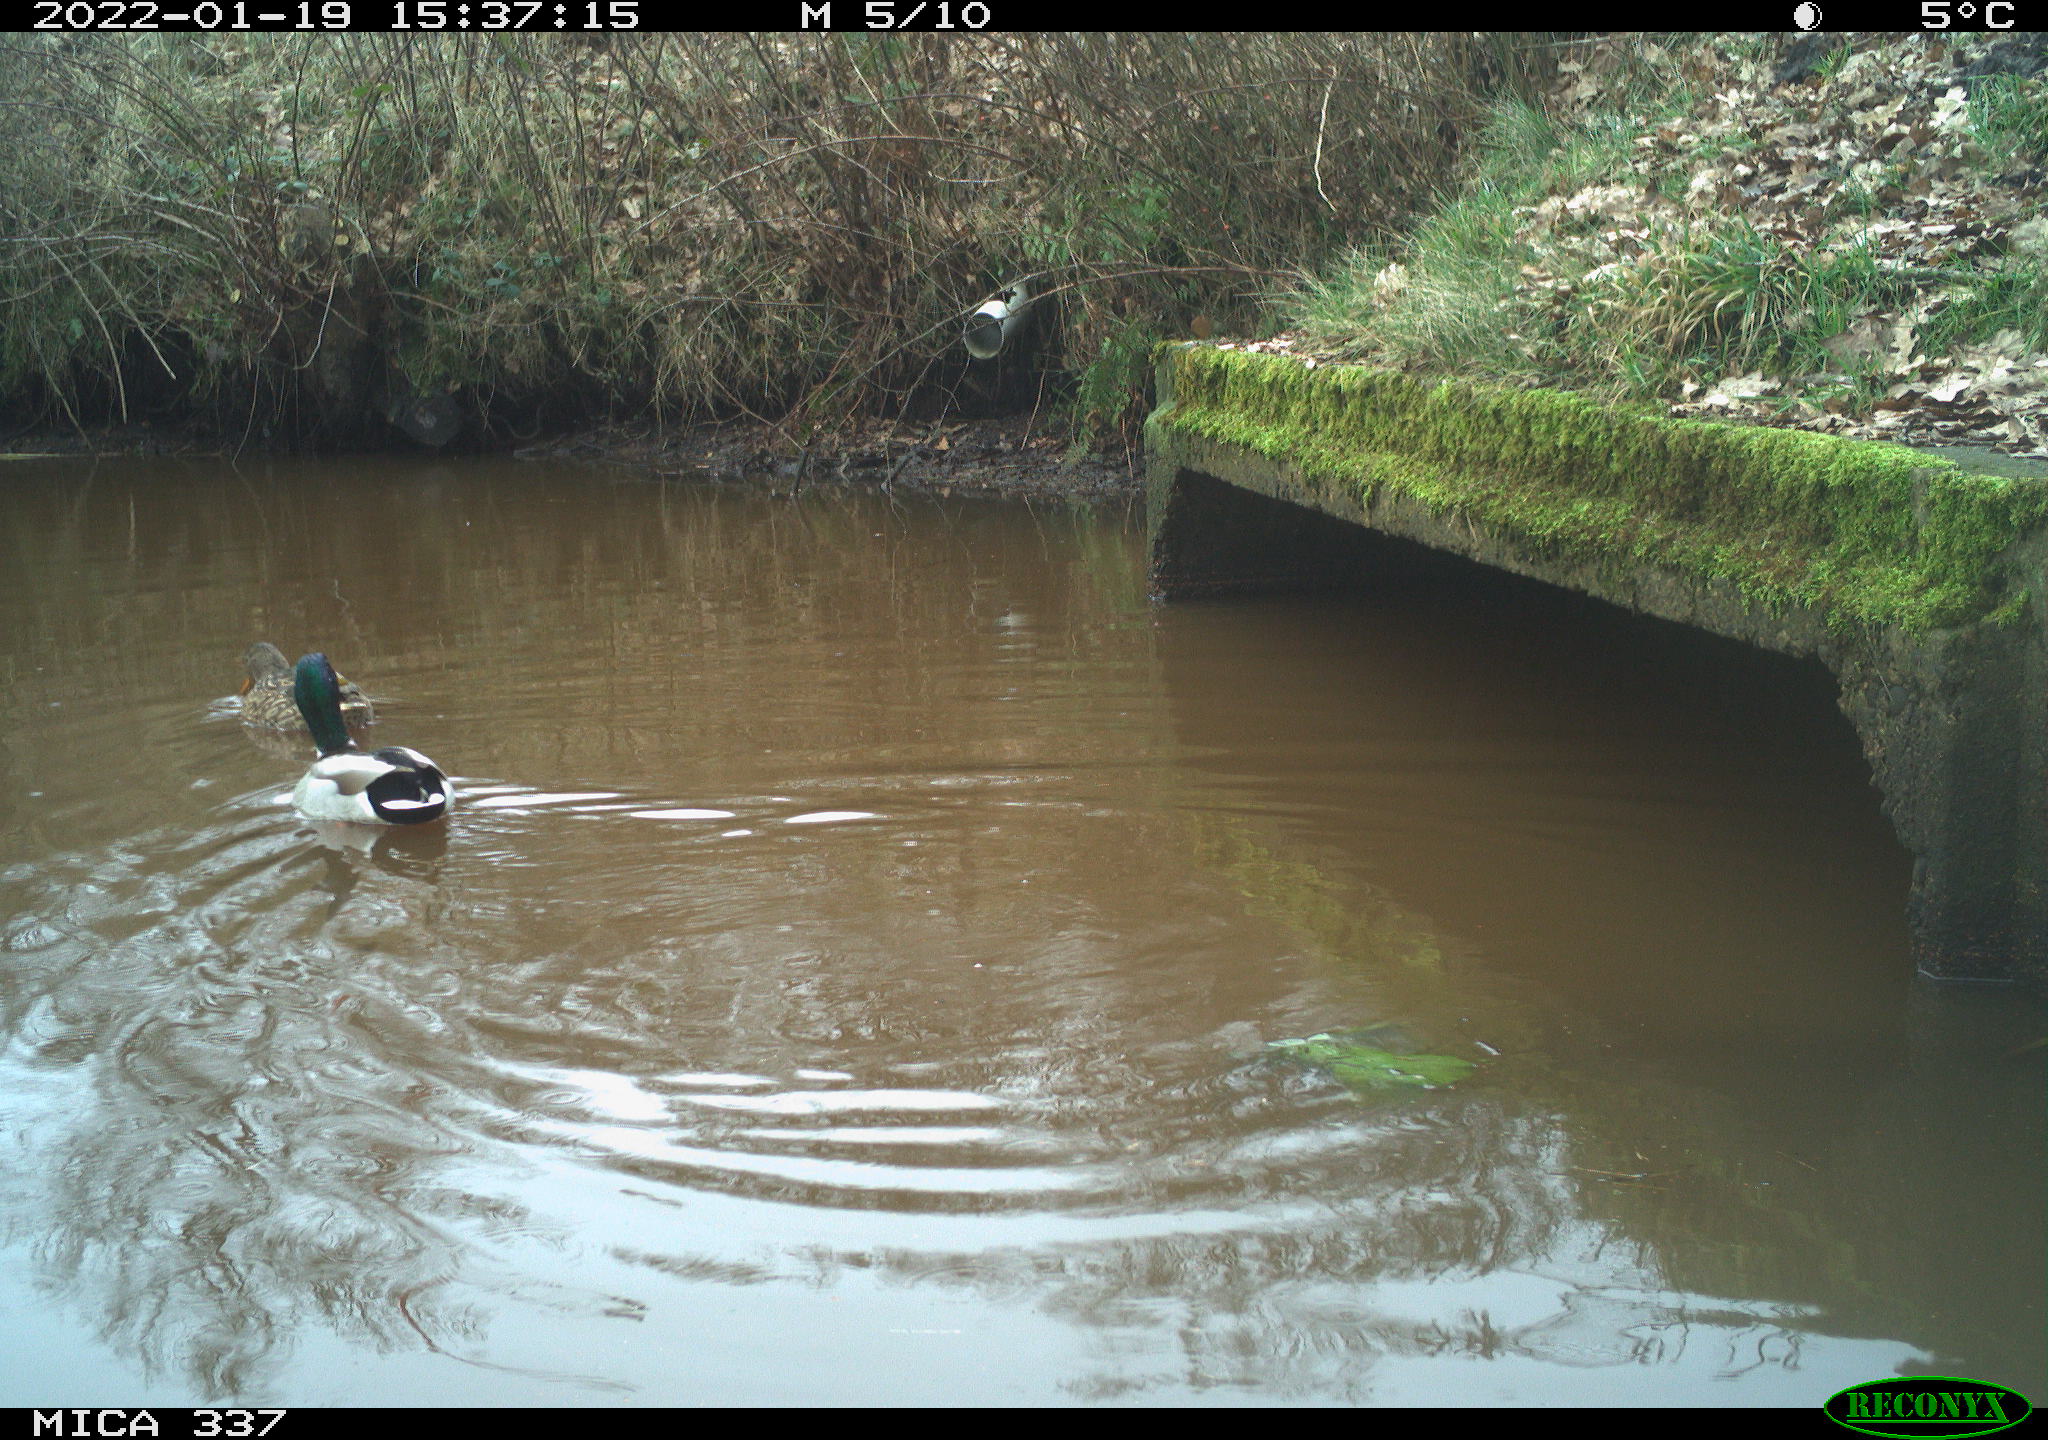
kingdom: Animalia
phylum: Chordata
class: Aves
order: Anseriformes
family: Anatidae
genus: Anas
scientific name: Anas platyrhynchos
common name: Mallard
